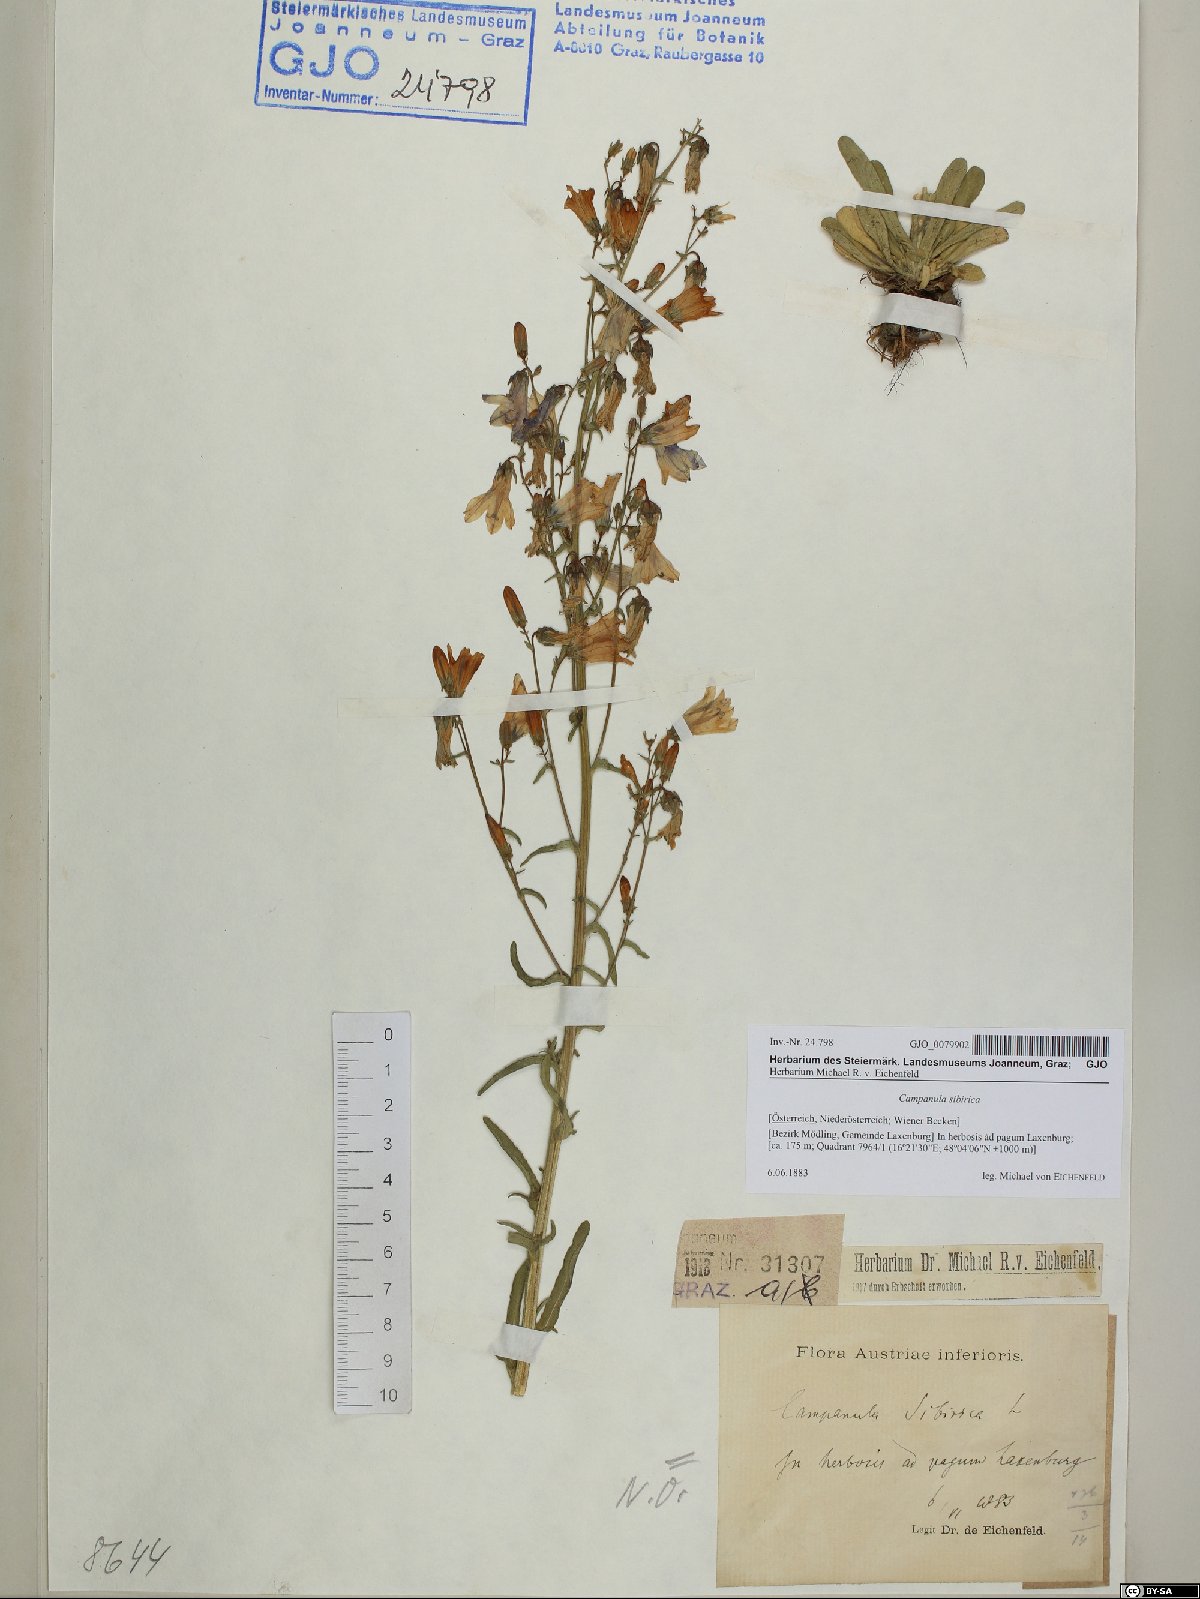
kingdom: Plantae
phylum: Tracheophyta
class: Magnoliopsida
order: Asterales
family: Campanulaceae
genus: Campanula
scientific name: Campanula sibirica
